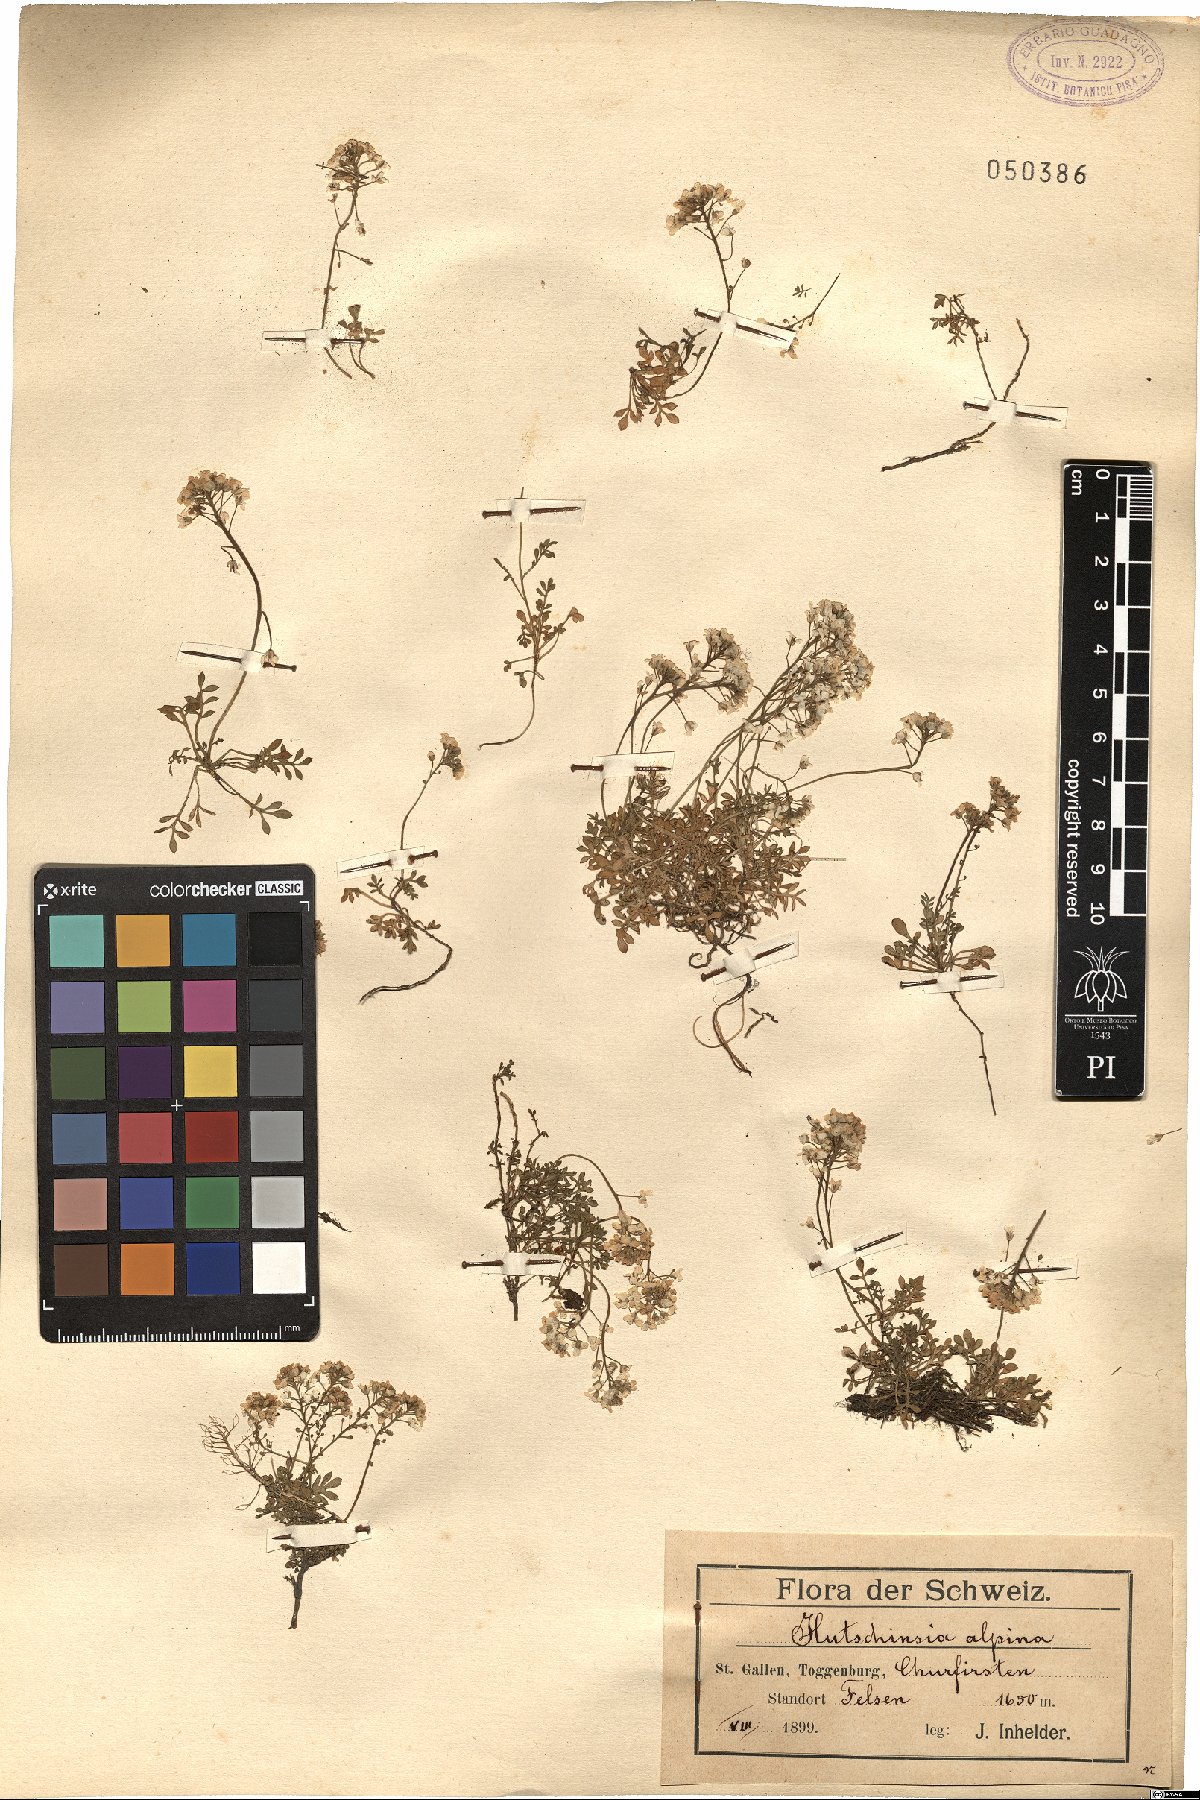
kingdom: Plantae
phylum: Tracheophyta
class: Magnoliopsida
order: Brassicales
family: Brassicaceae
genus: Hornungia
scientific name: Hornungia alpina
